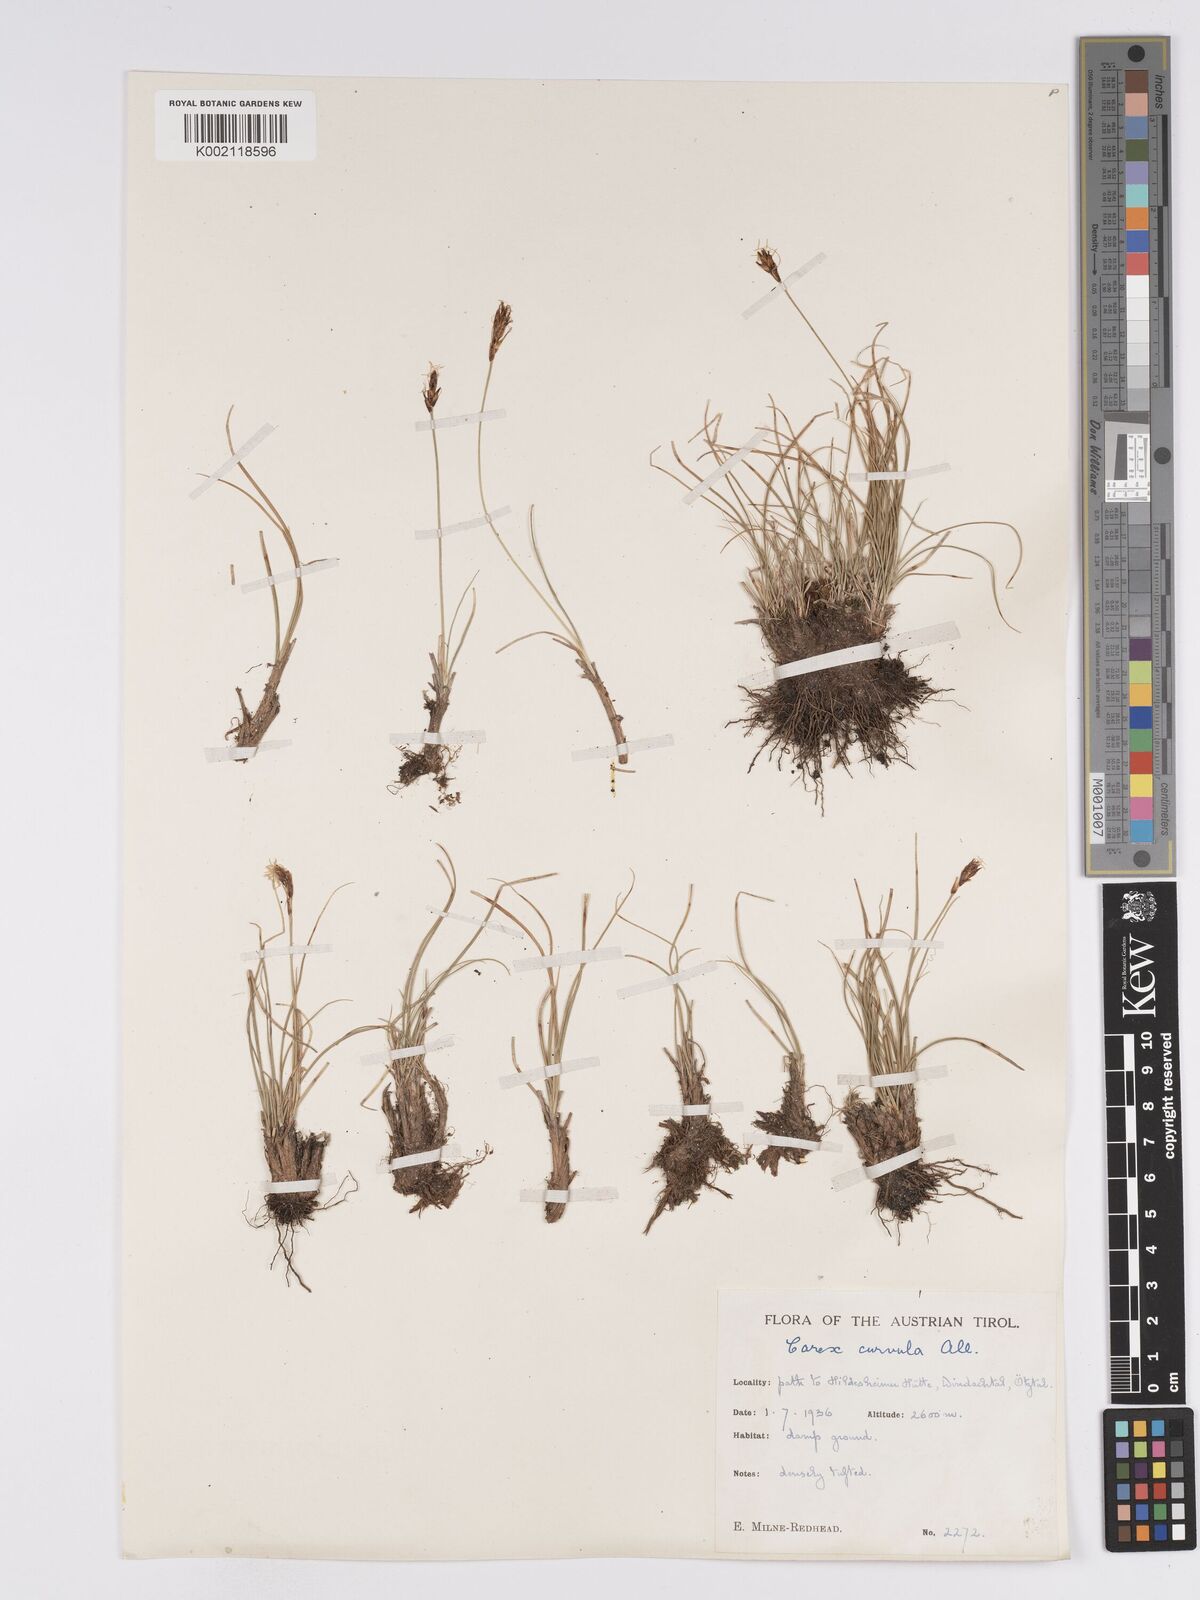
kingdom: Plantae
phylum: Tracheophyta
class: Liliopsida
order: Poales
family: Cyperaceae
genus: Carex
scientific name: Carex curvula
